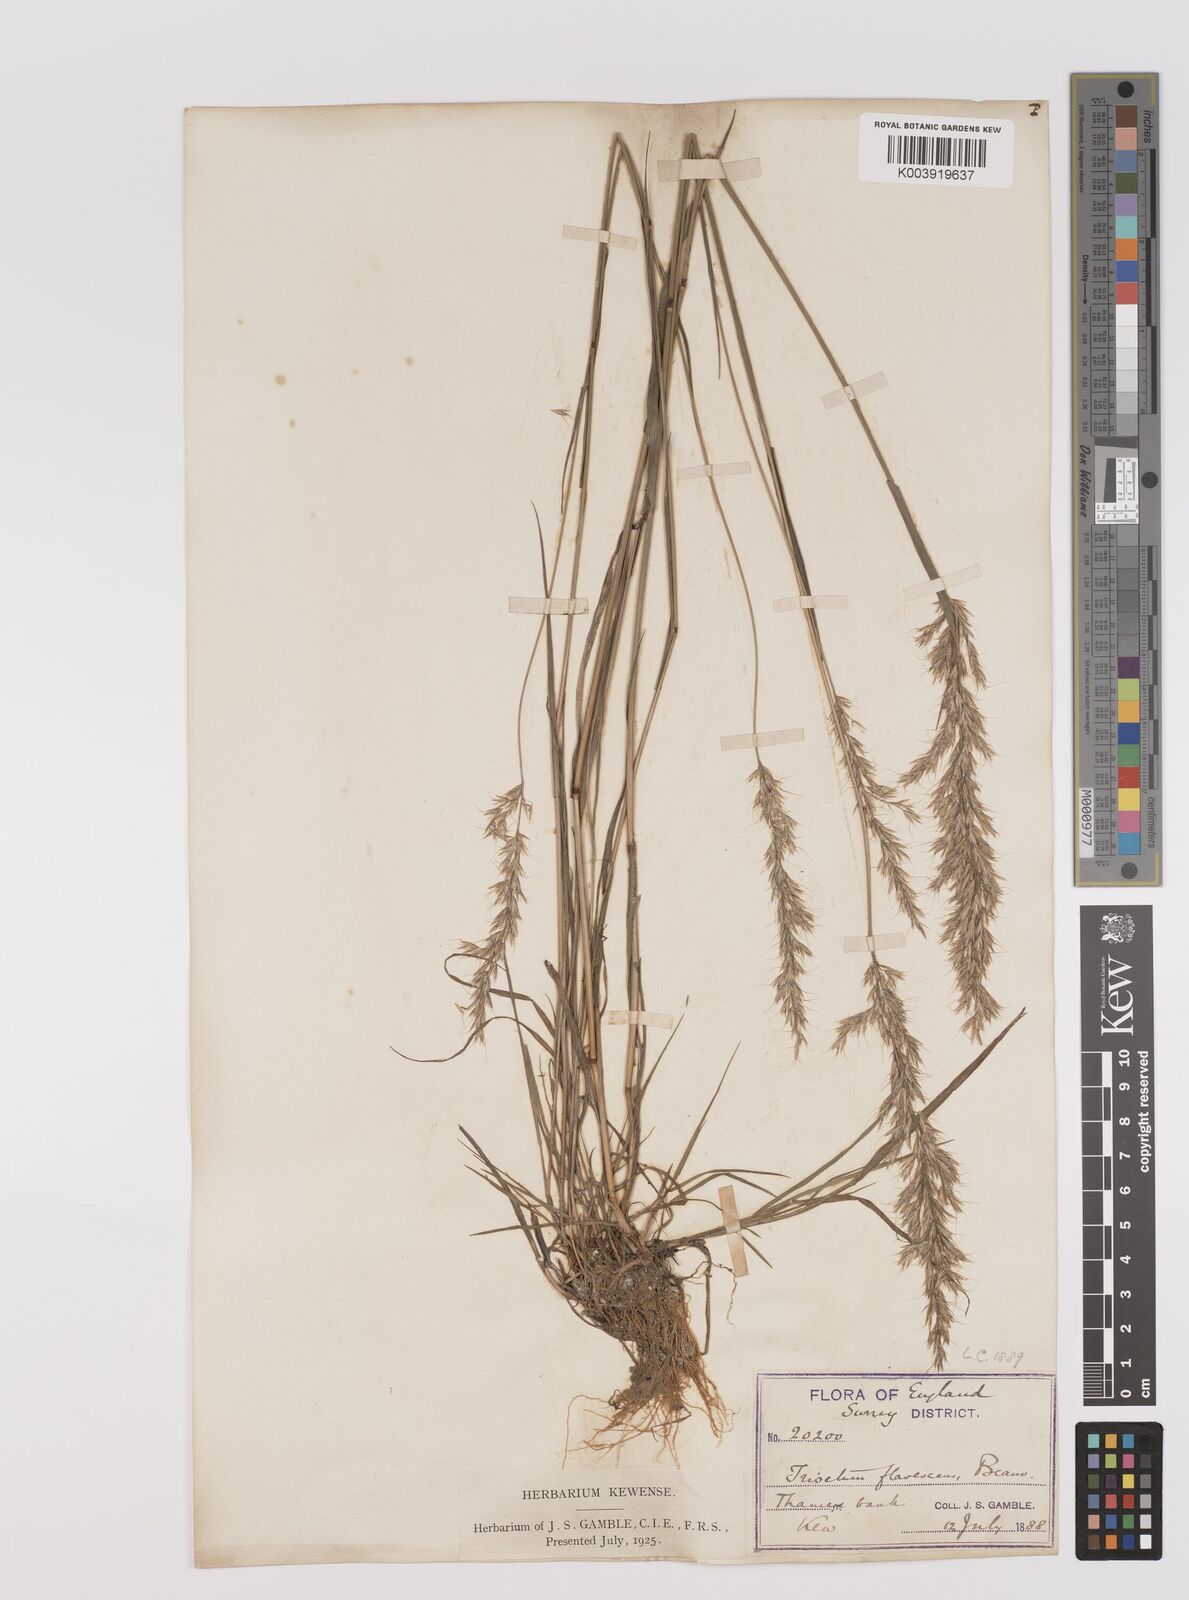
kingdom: Plantae
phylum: Tracheophyta
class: Liliopsida
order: Poales
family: Poaceae
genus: Trisetum
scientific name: Trisetum flavescens
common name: Yellow oat-grass
